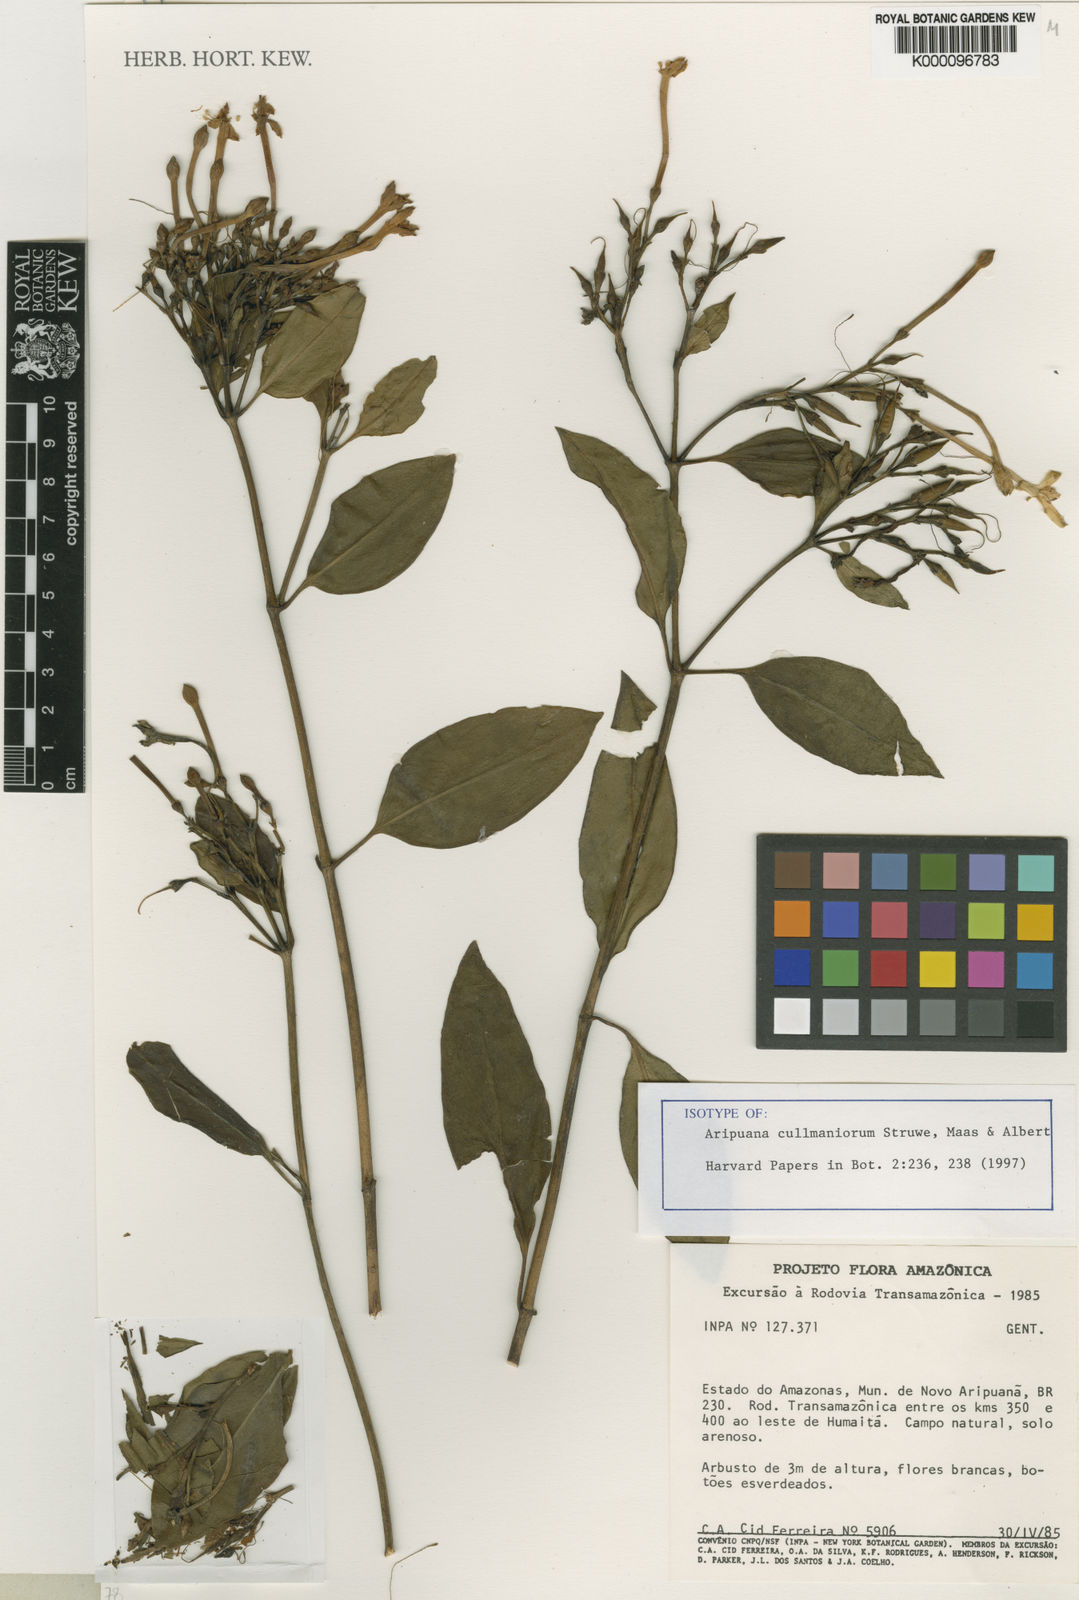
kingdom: Plantae
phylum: Tracheophyta
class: Magnoliopsida
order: Gentianales
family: Gentianaceae
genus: Aripuana
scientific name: Aripuana cullmaniorum
